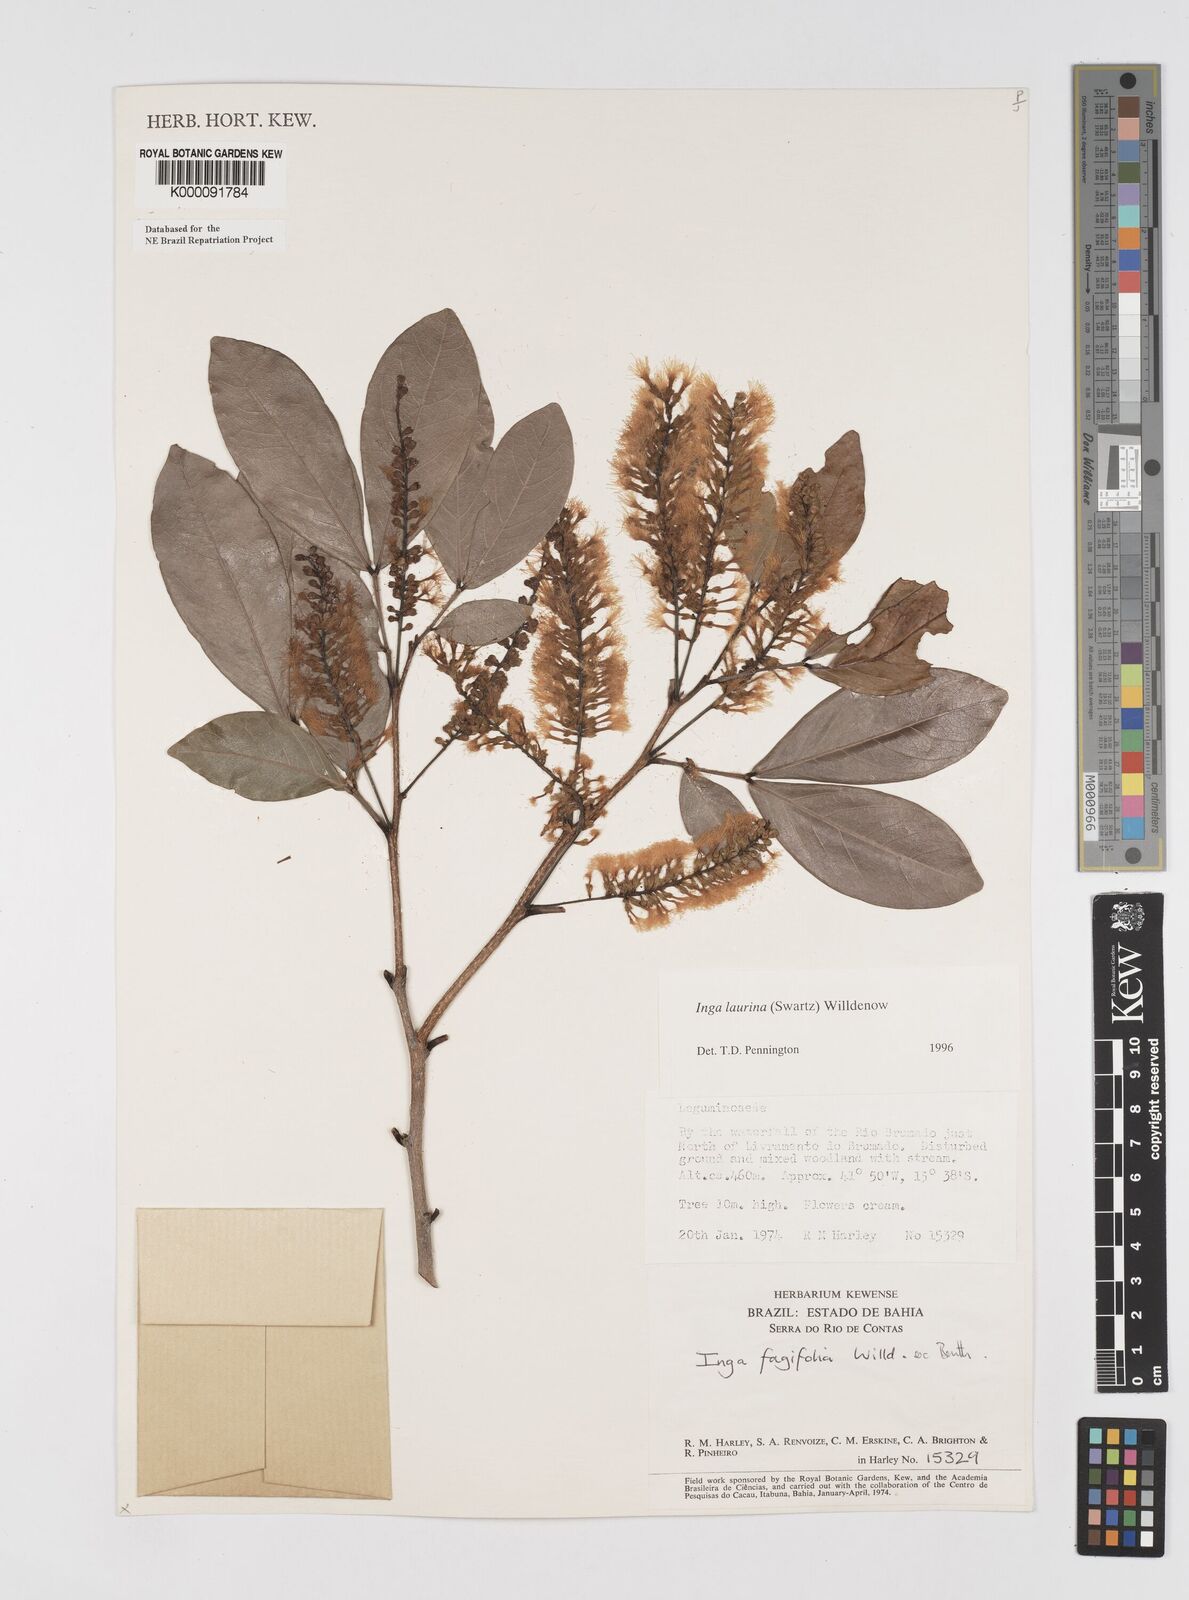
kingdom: Plantae
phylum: Tracheophyta
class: Magnoliopsida
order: Fabales
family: Fabaceae
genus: Inga
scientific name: Inga laurina
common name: Red wood
